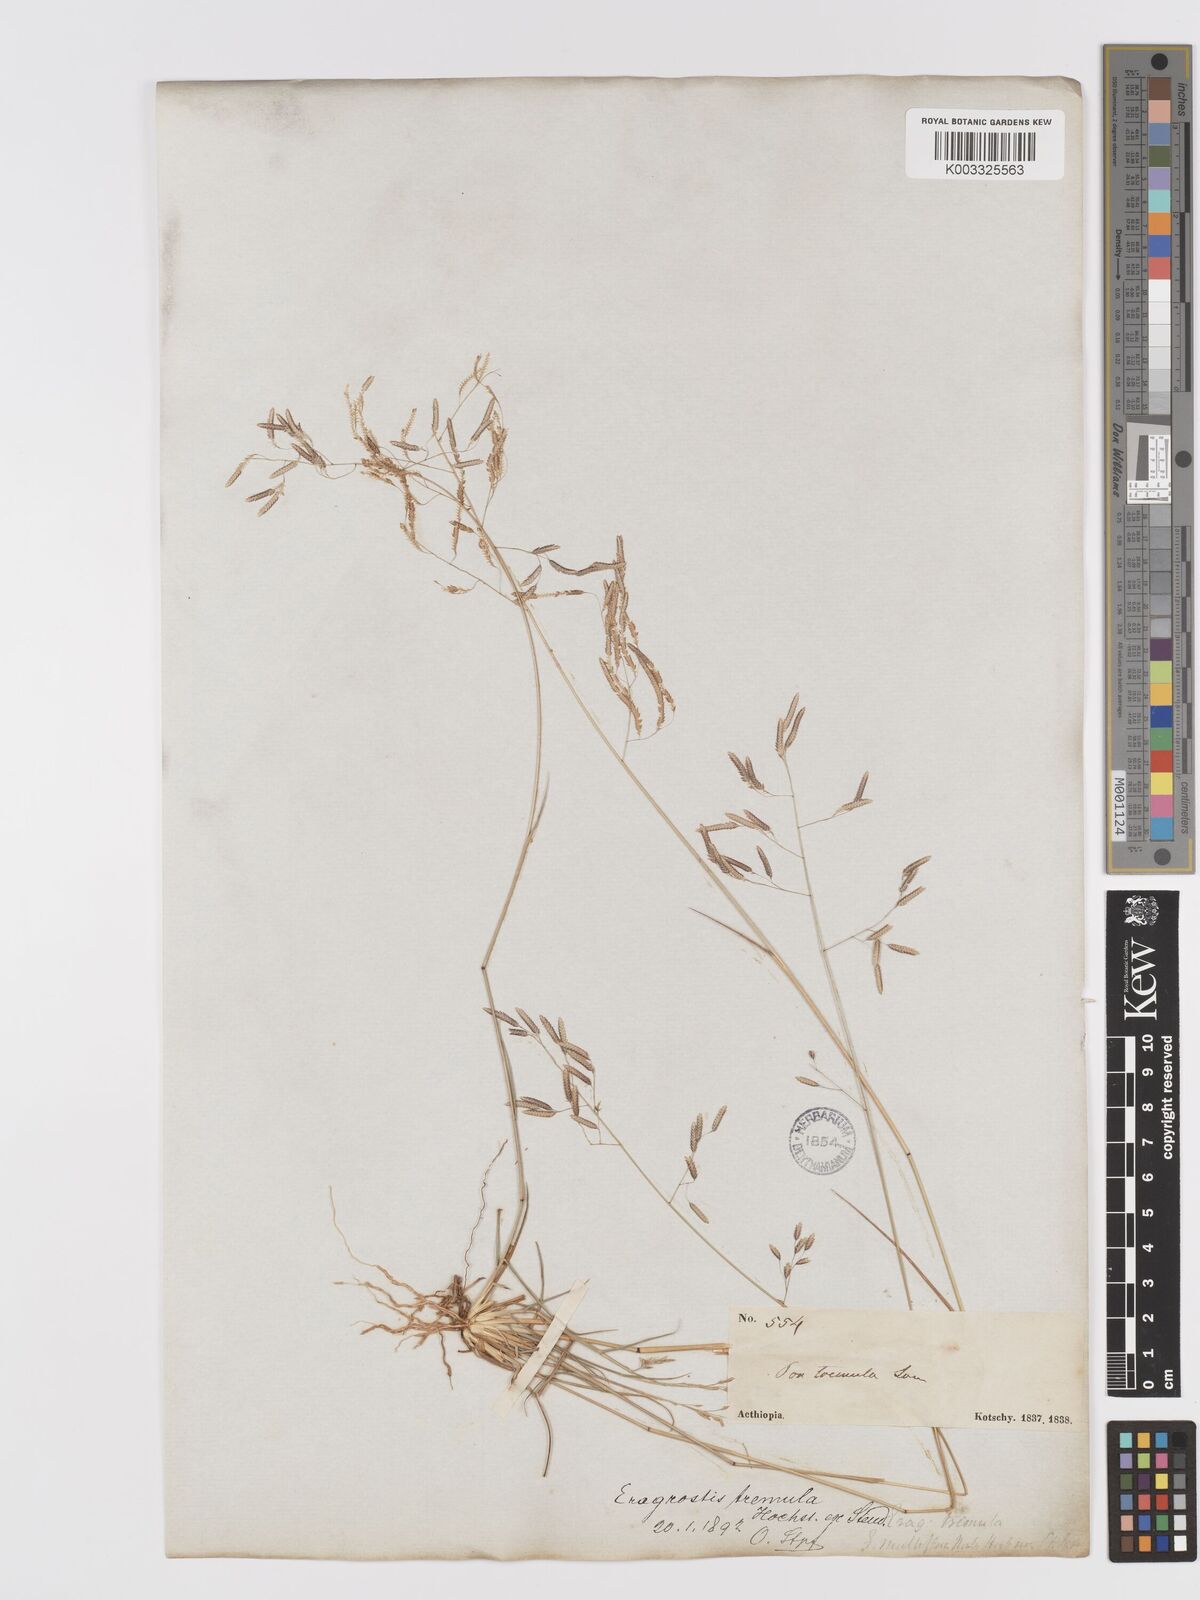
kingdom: Plantae
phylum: Tracheophyta
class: Liliopsida
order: Poales
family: Poaceae
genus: Eragrostis
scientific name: Eragrostis tremula
